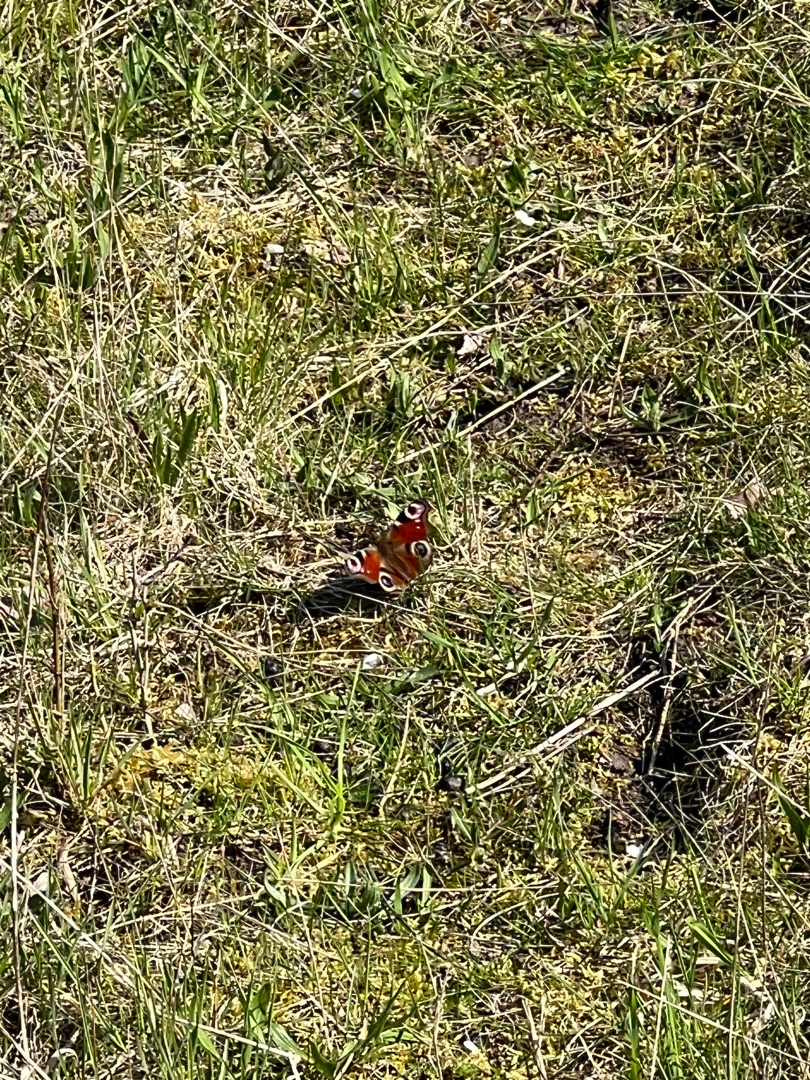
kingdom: Animalia
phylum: Arthropoda
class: Insecta
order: Lepidoptera
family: Nymphalidae
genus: Aglais
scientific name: Aglais io
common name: Dagpåfugleøje
